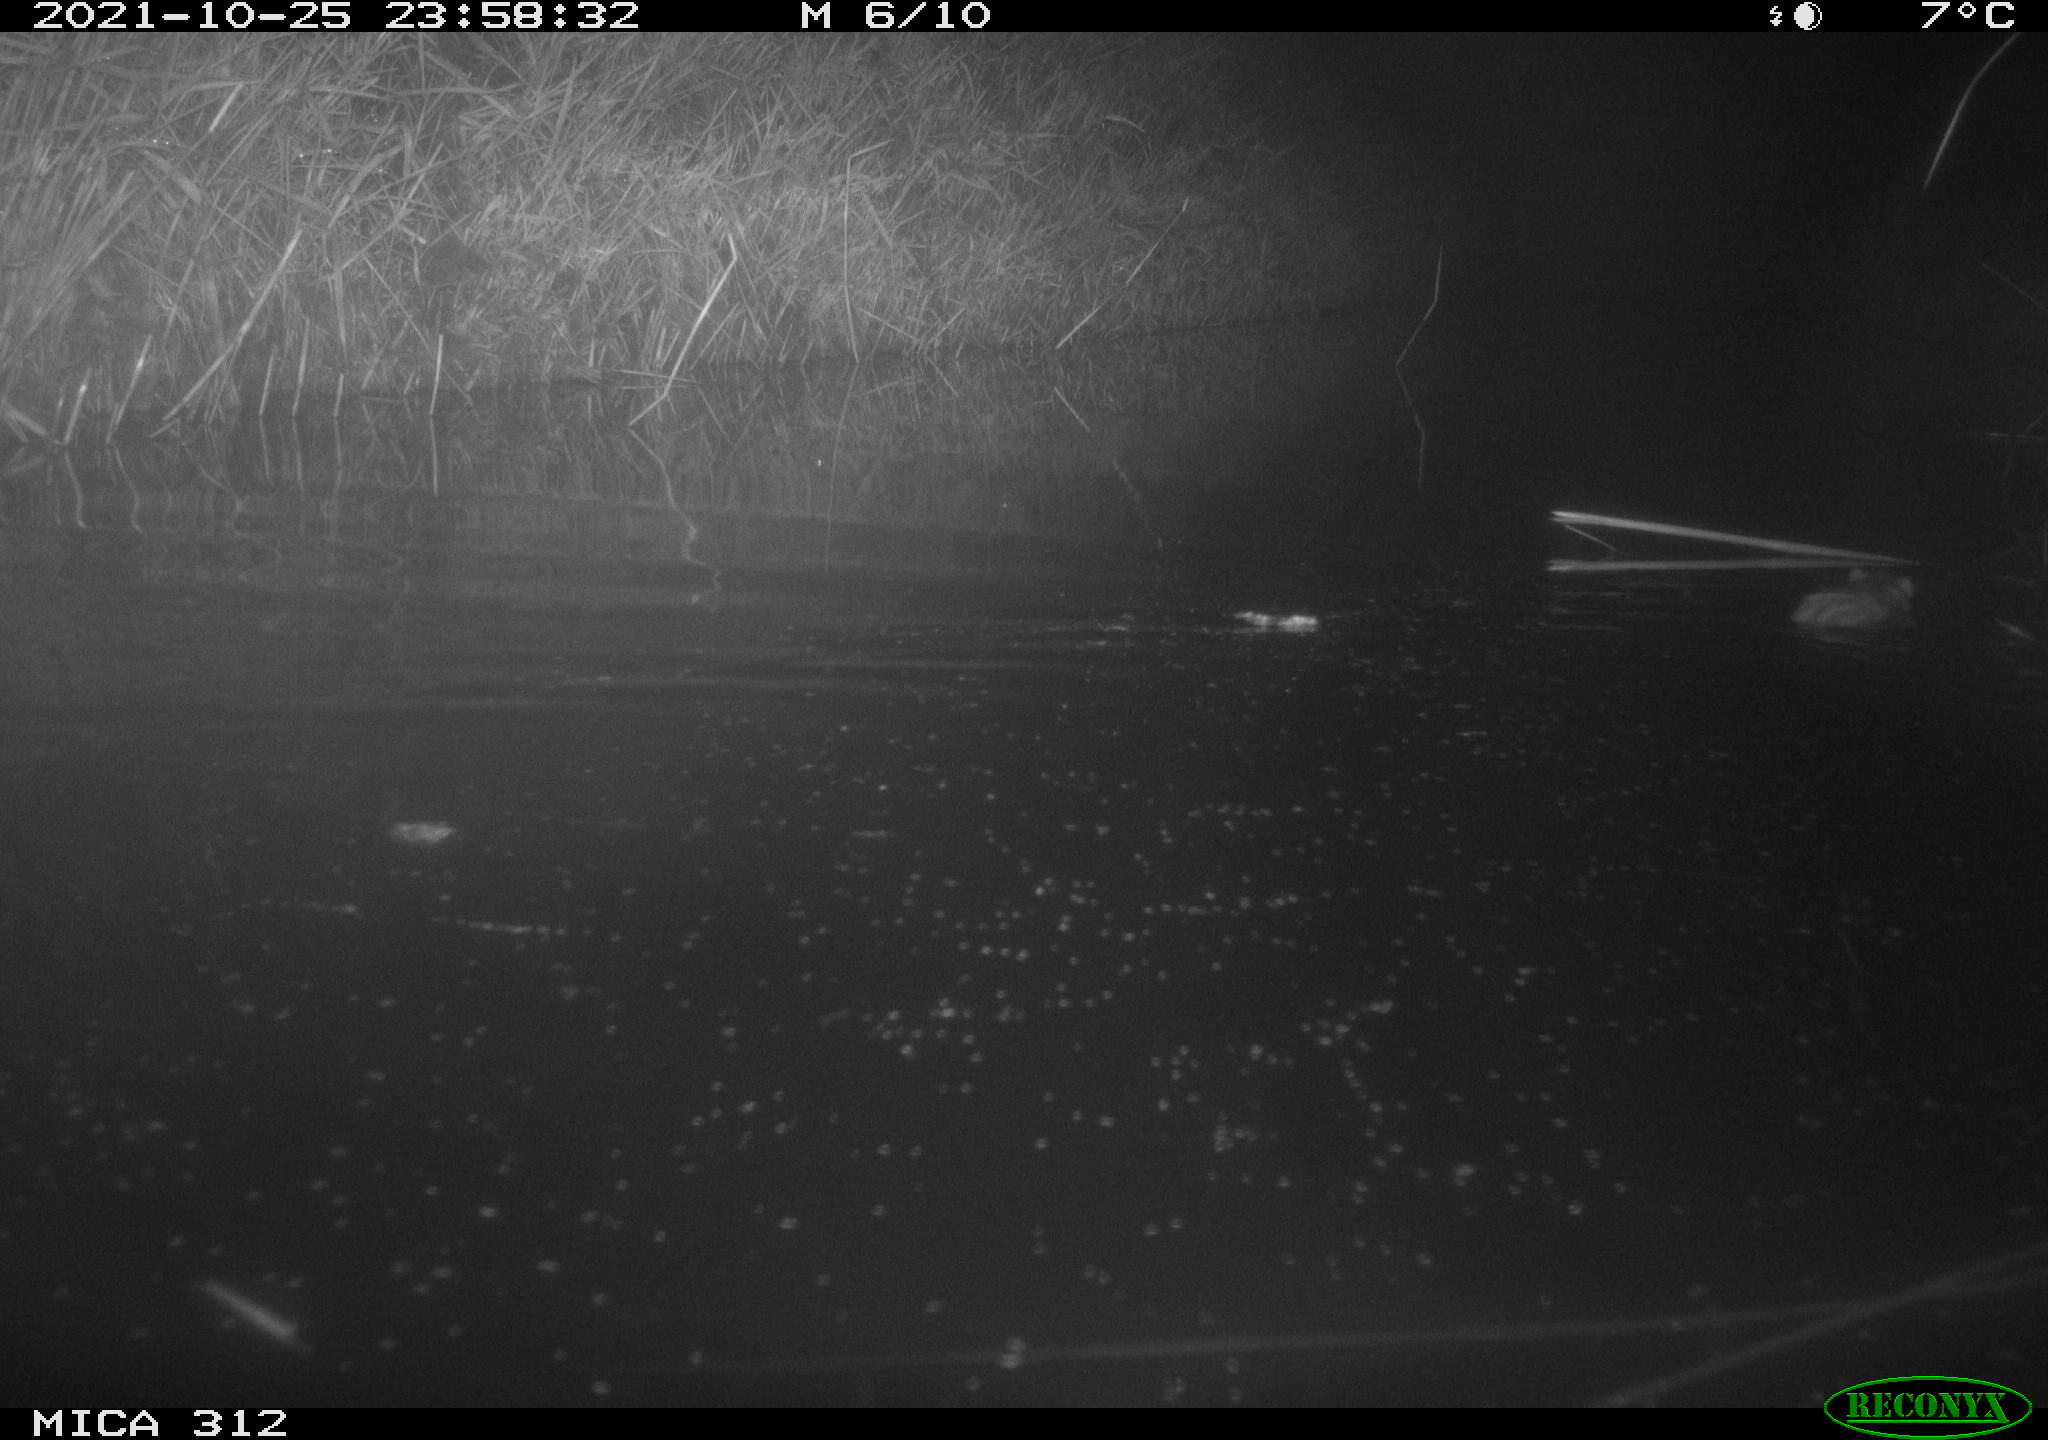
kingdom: Animalia
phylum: Chordata
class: Mammalia
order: Rodentia
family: Muridae
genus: Rattus
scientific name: Rattus norvegicus
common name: Brown rat
